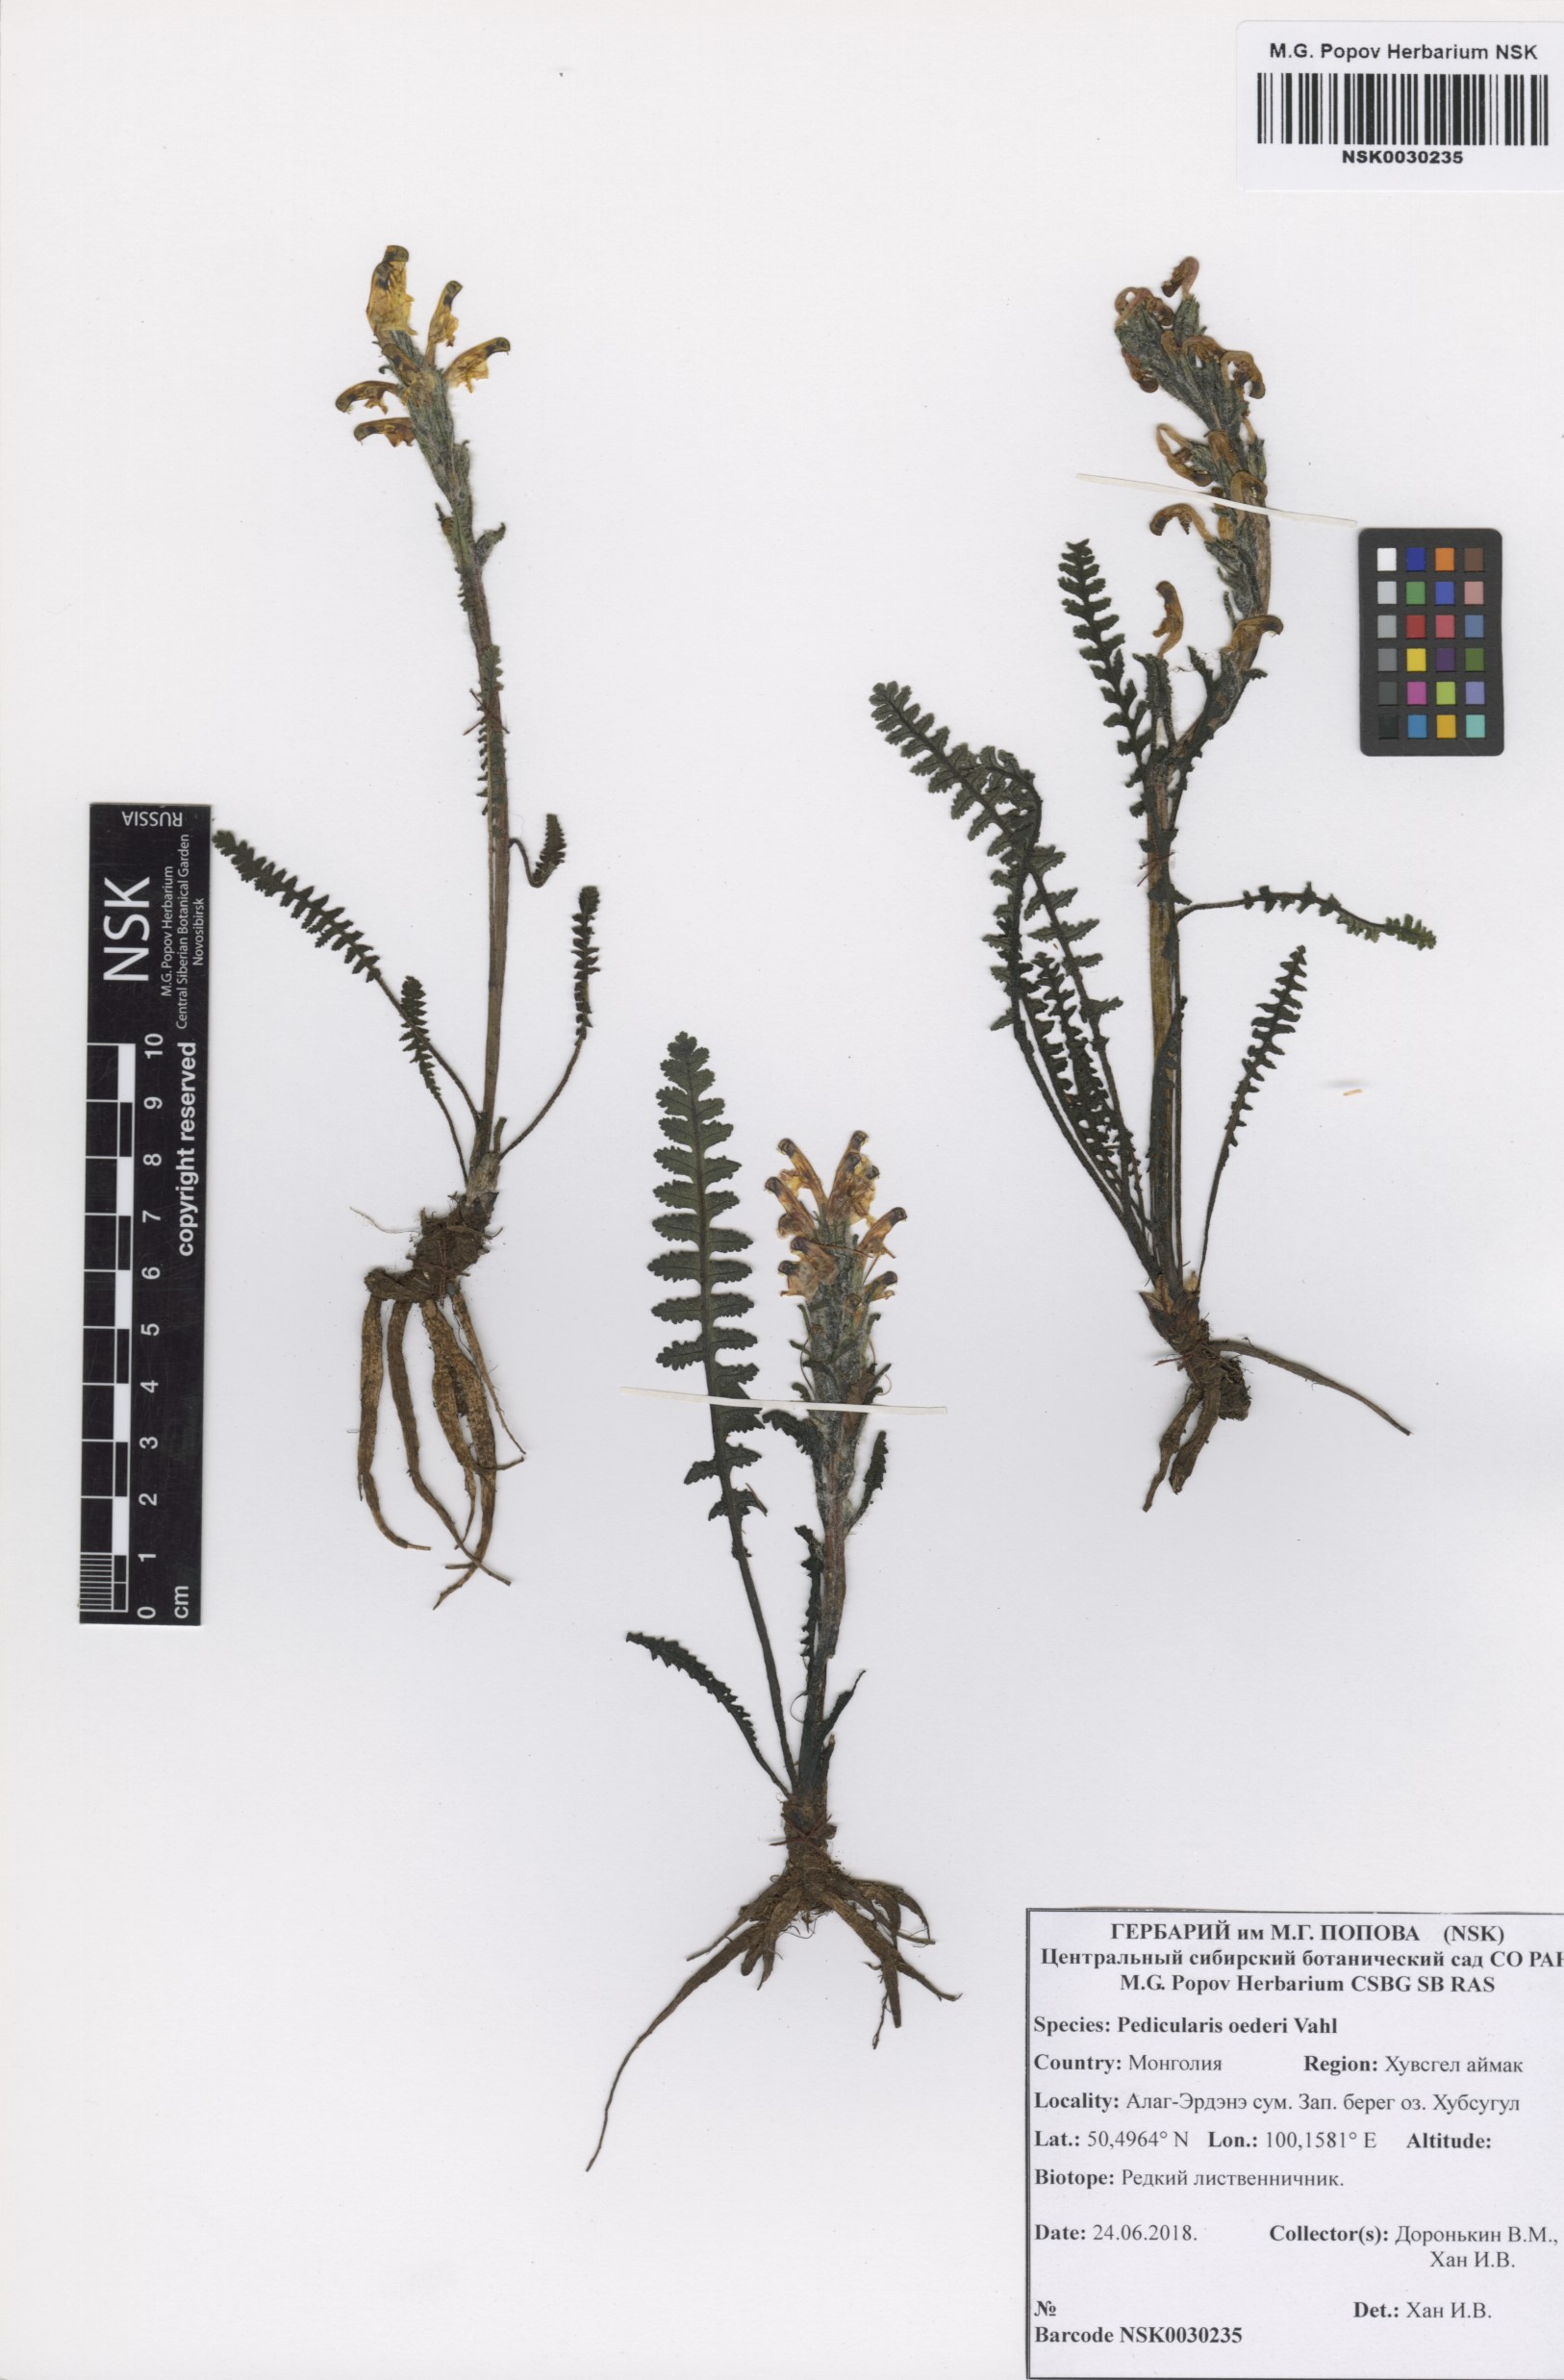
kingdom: Plantae
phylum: Tracheophyta
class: Magnoliopsida
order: Lamiales
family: Orobanchaceae
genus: Pedicularis
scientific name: Pedicularis oederi
